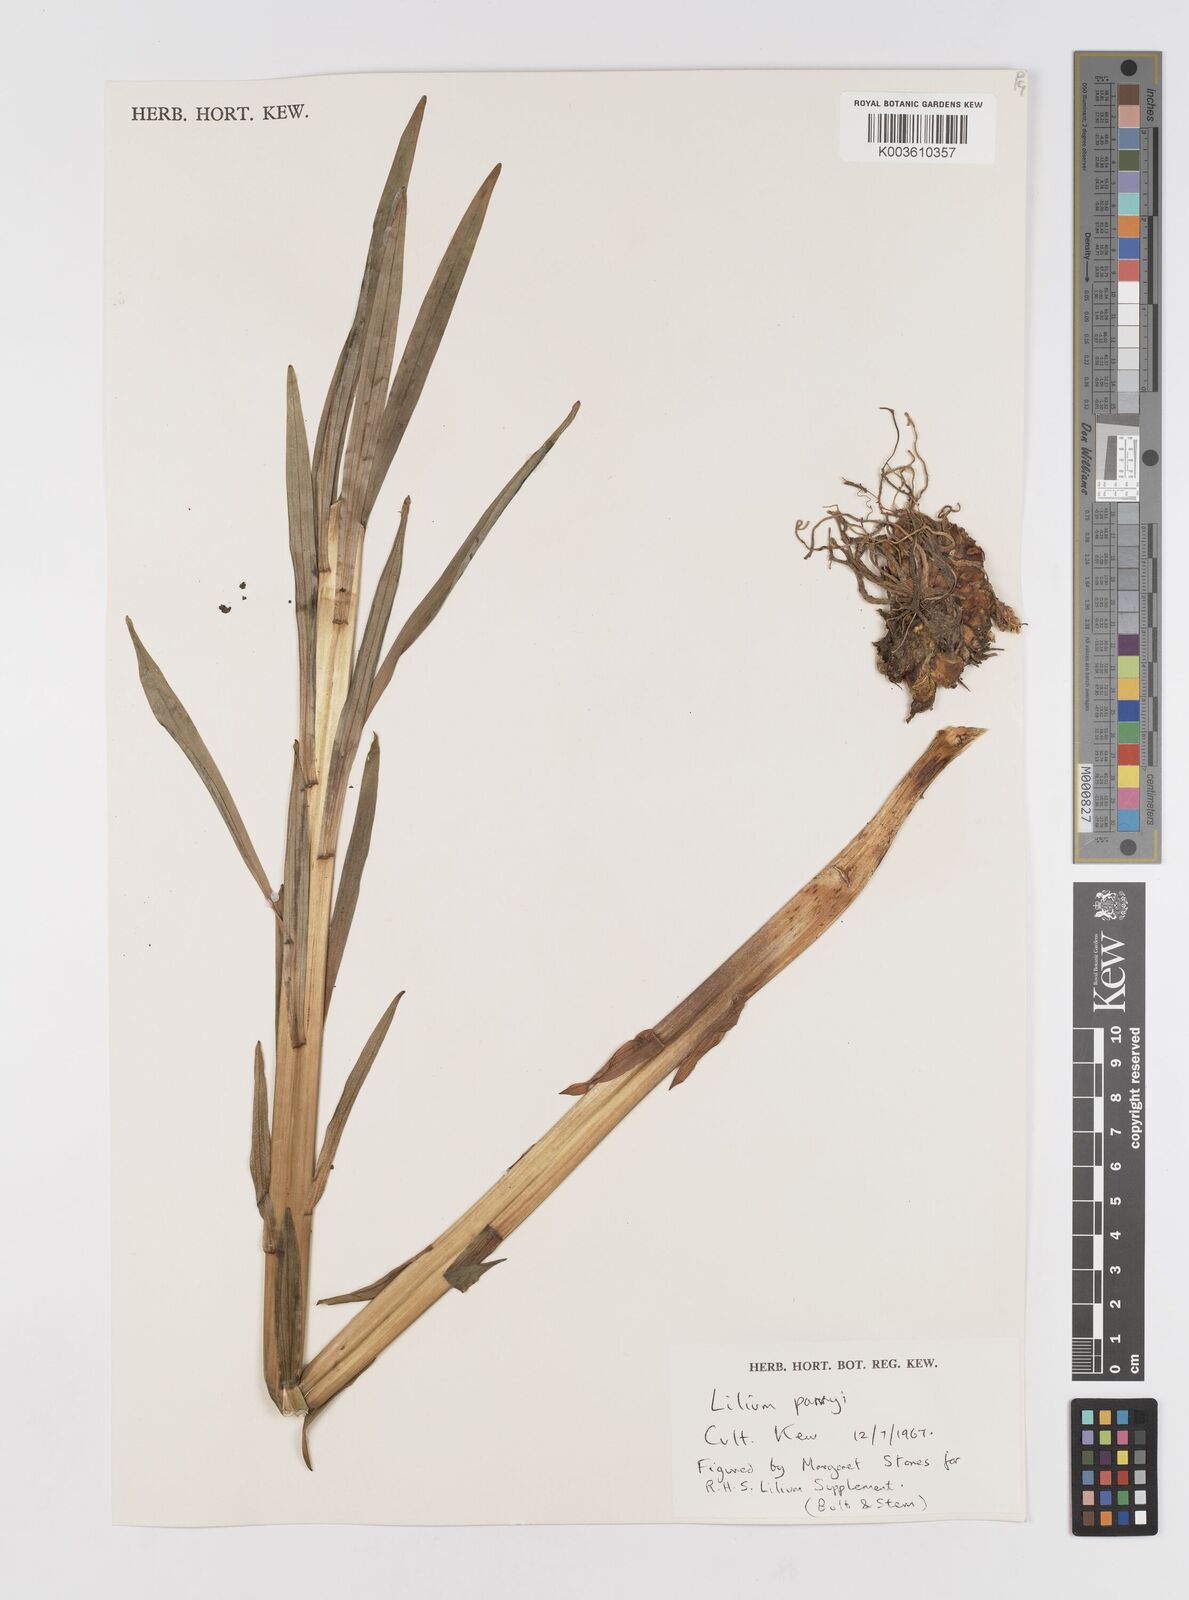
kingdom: Plantae
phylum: Tracheophyta
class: Liliopsida
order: Liliales
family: Liliaceae
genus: Lilium
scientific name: Lilium parryi
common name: Lemon lily
